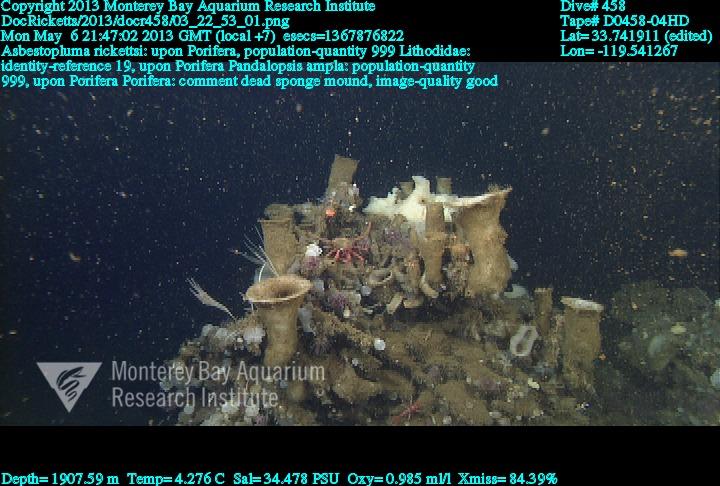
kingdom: Animalia
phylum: Porifera
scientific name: Porifera
